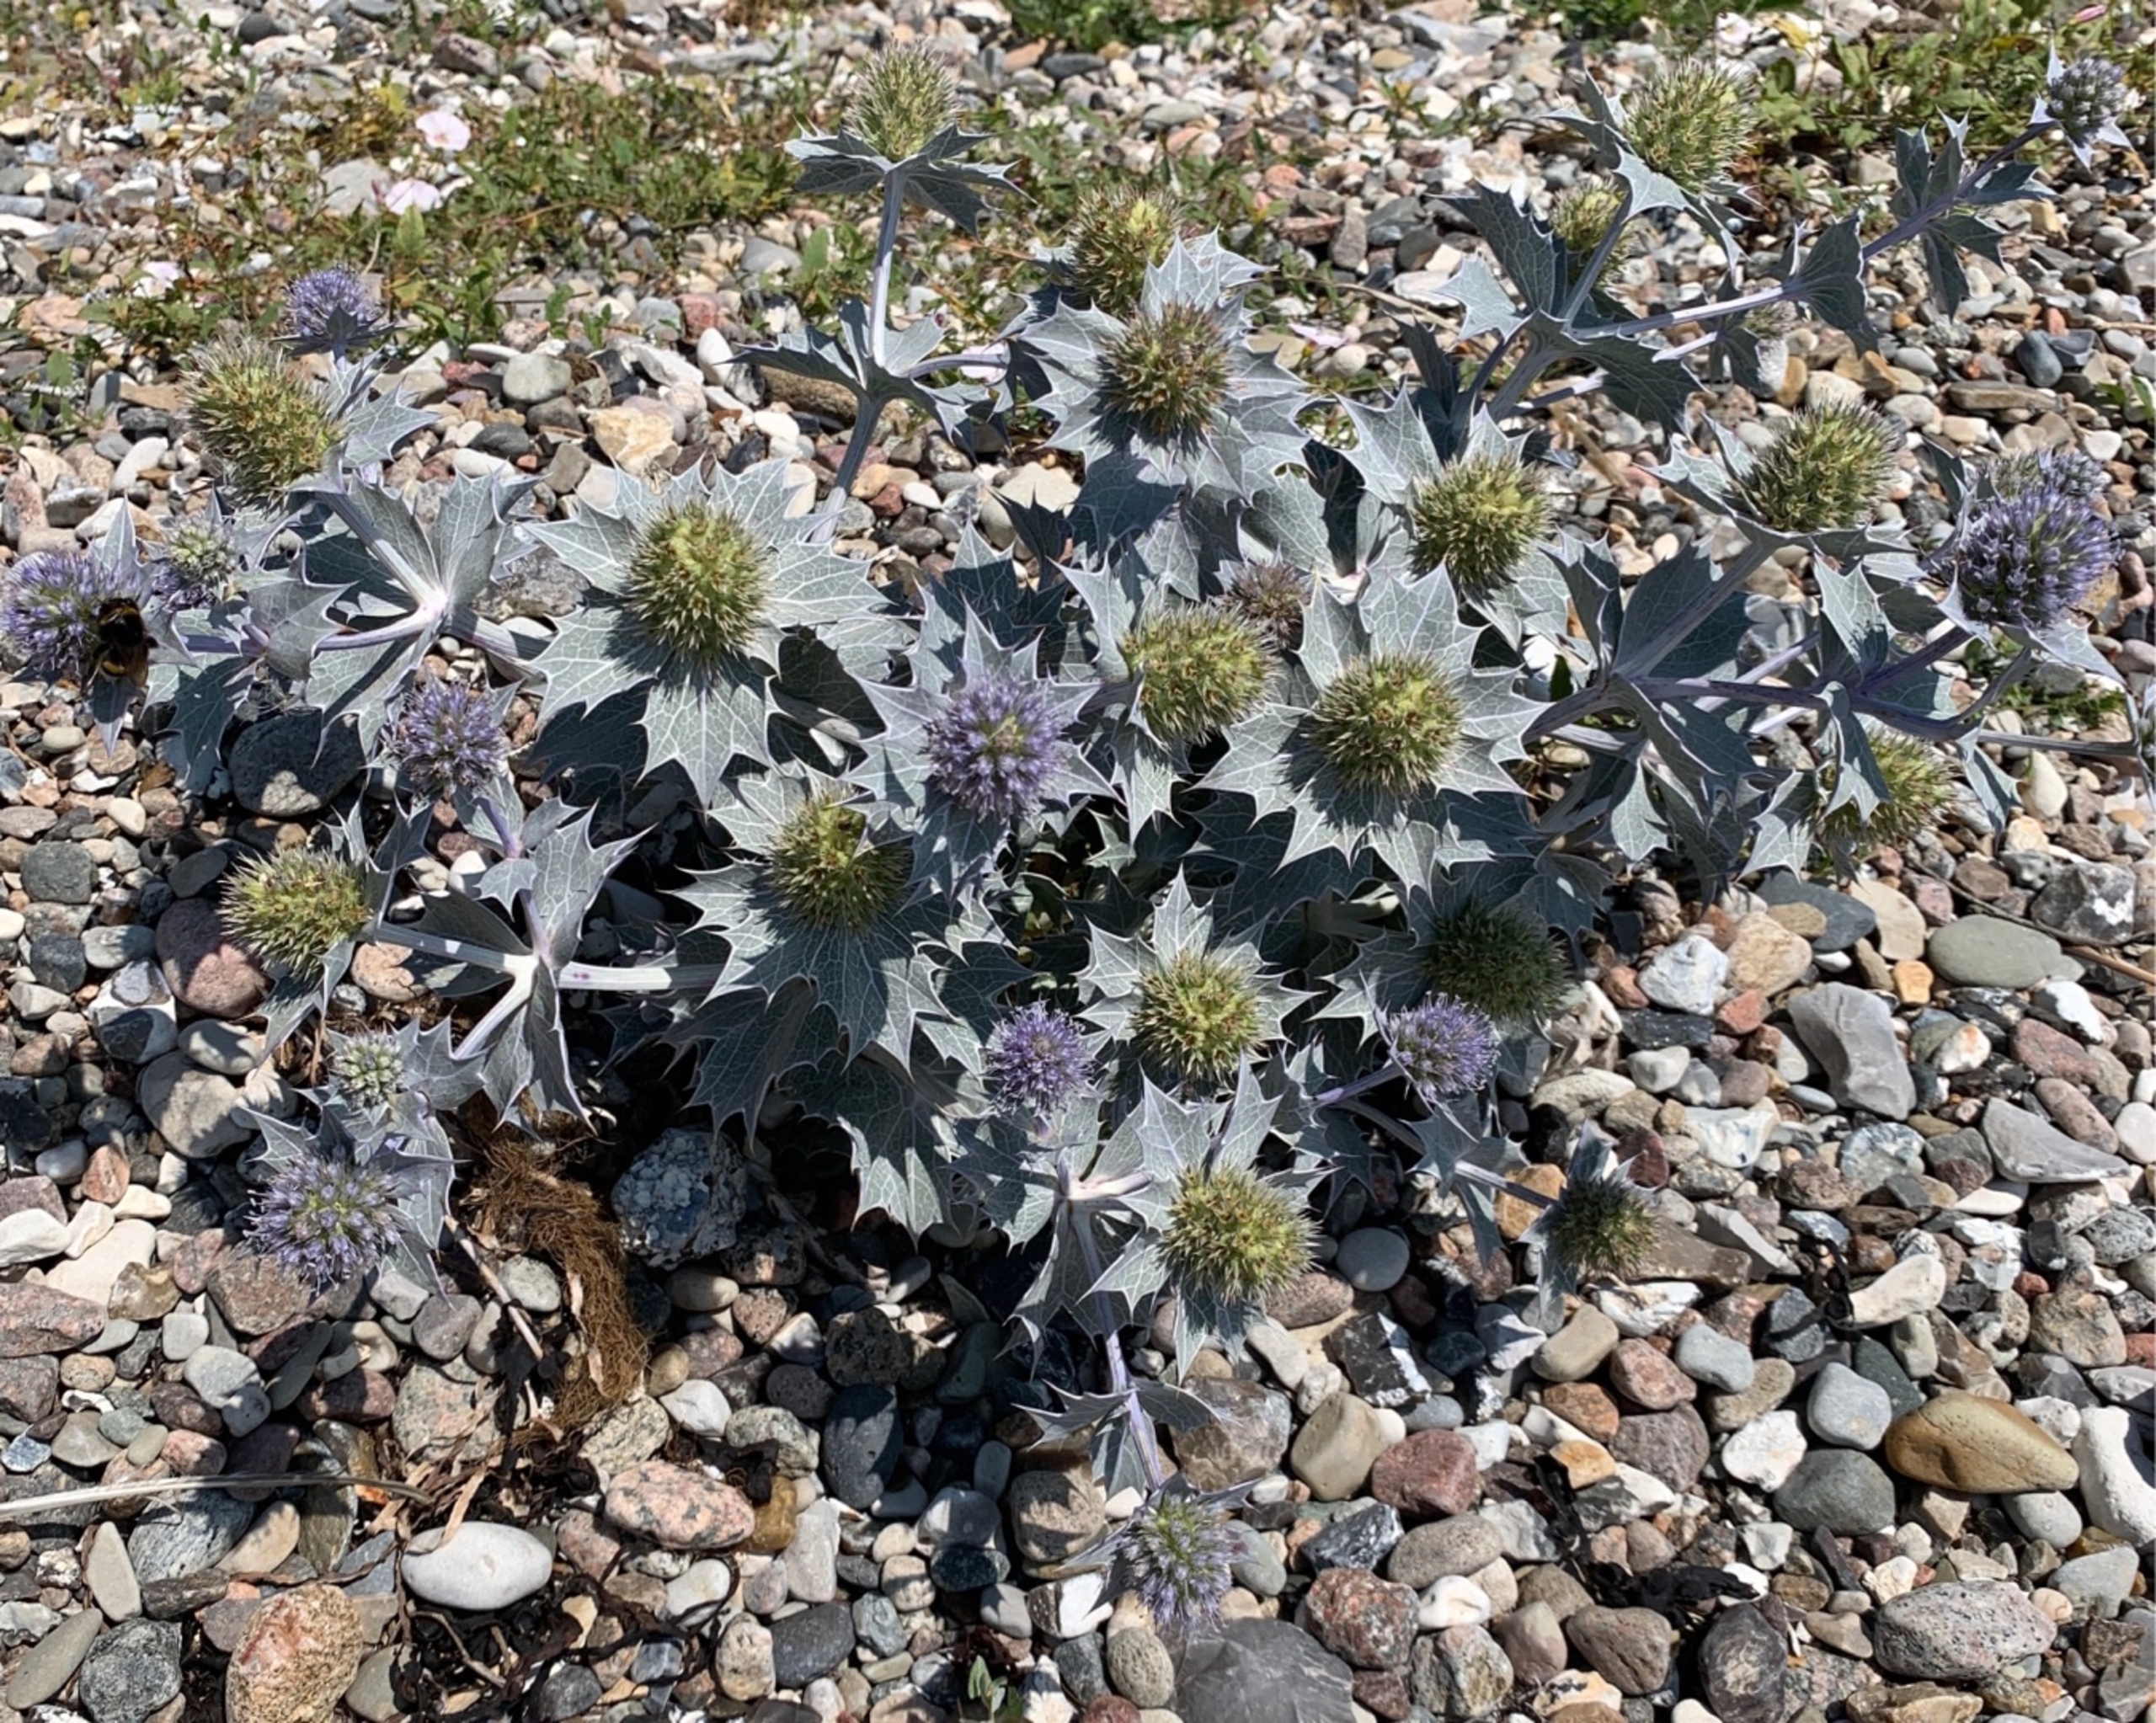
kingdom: Plantae
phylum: Tracheophyta
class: Magnoliopsida
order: Apiales
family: Apiaceae
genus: Eryngium
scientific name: Eryngium maritimum
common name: Strand-mandstro
